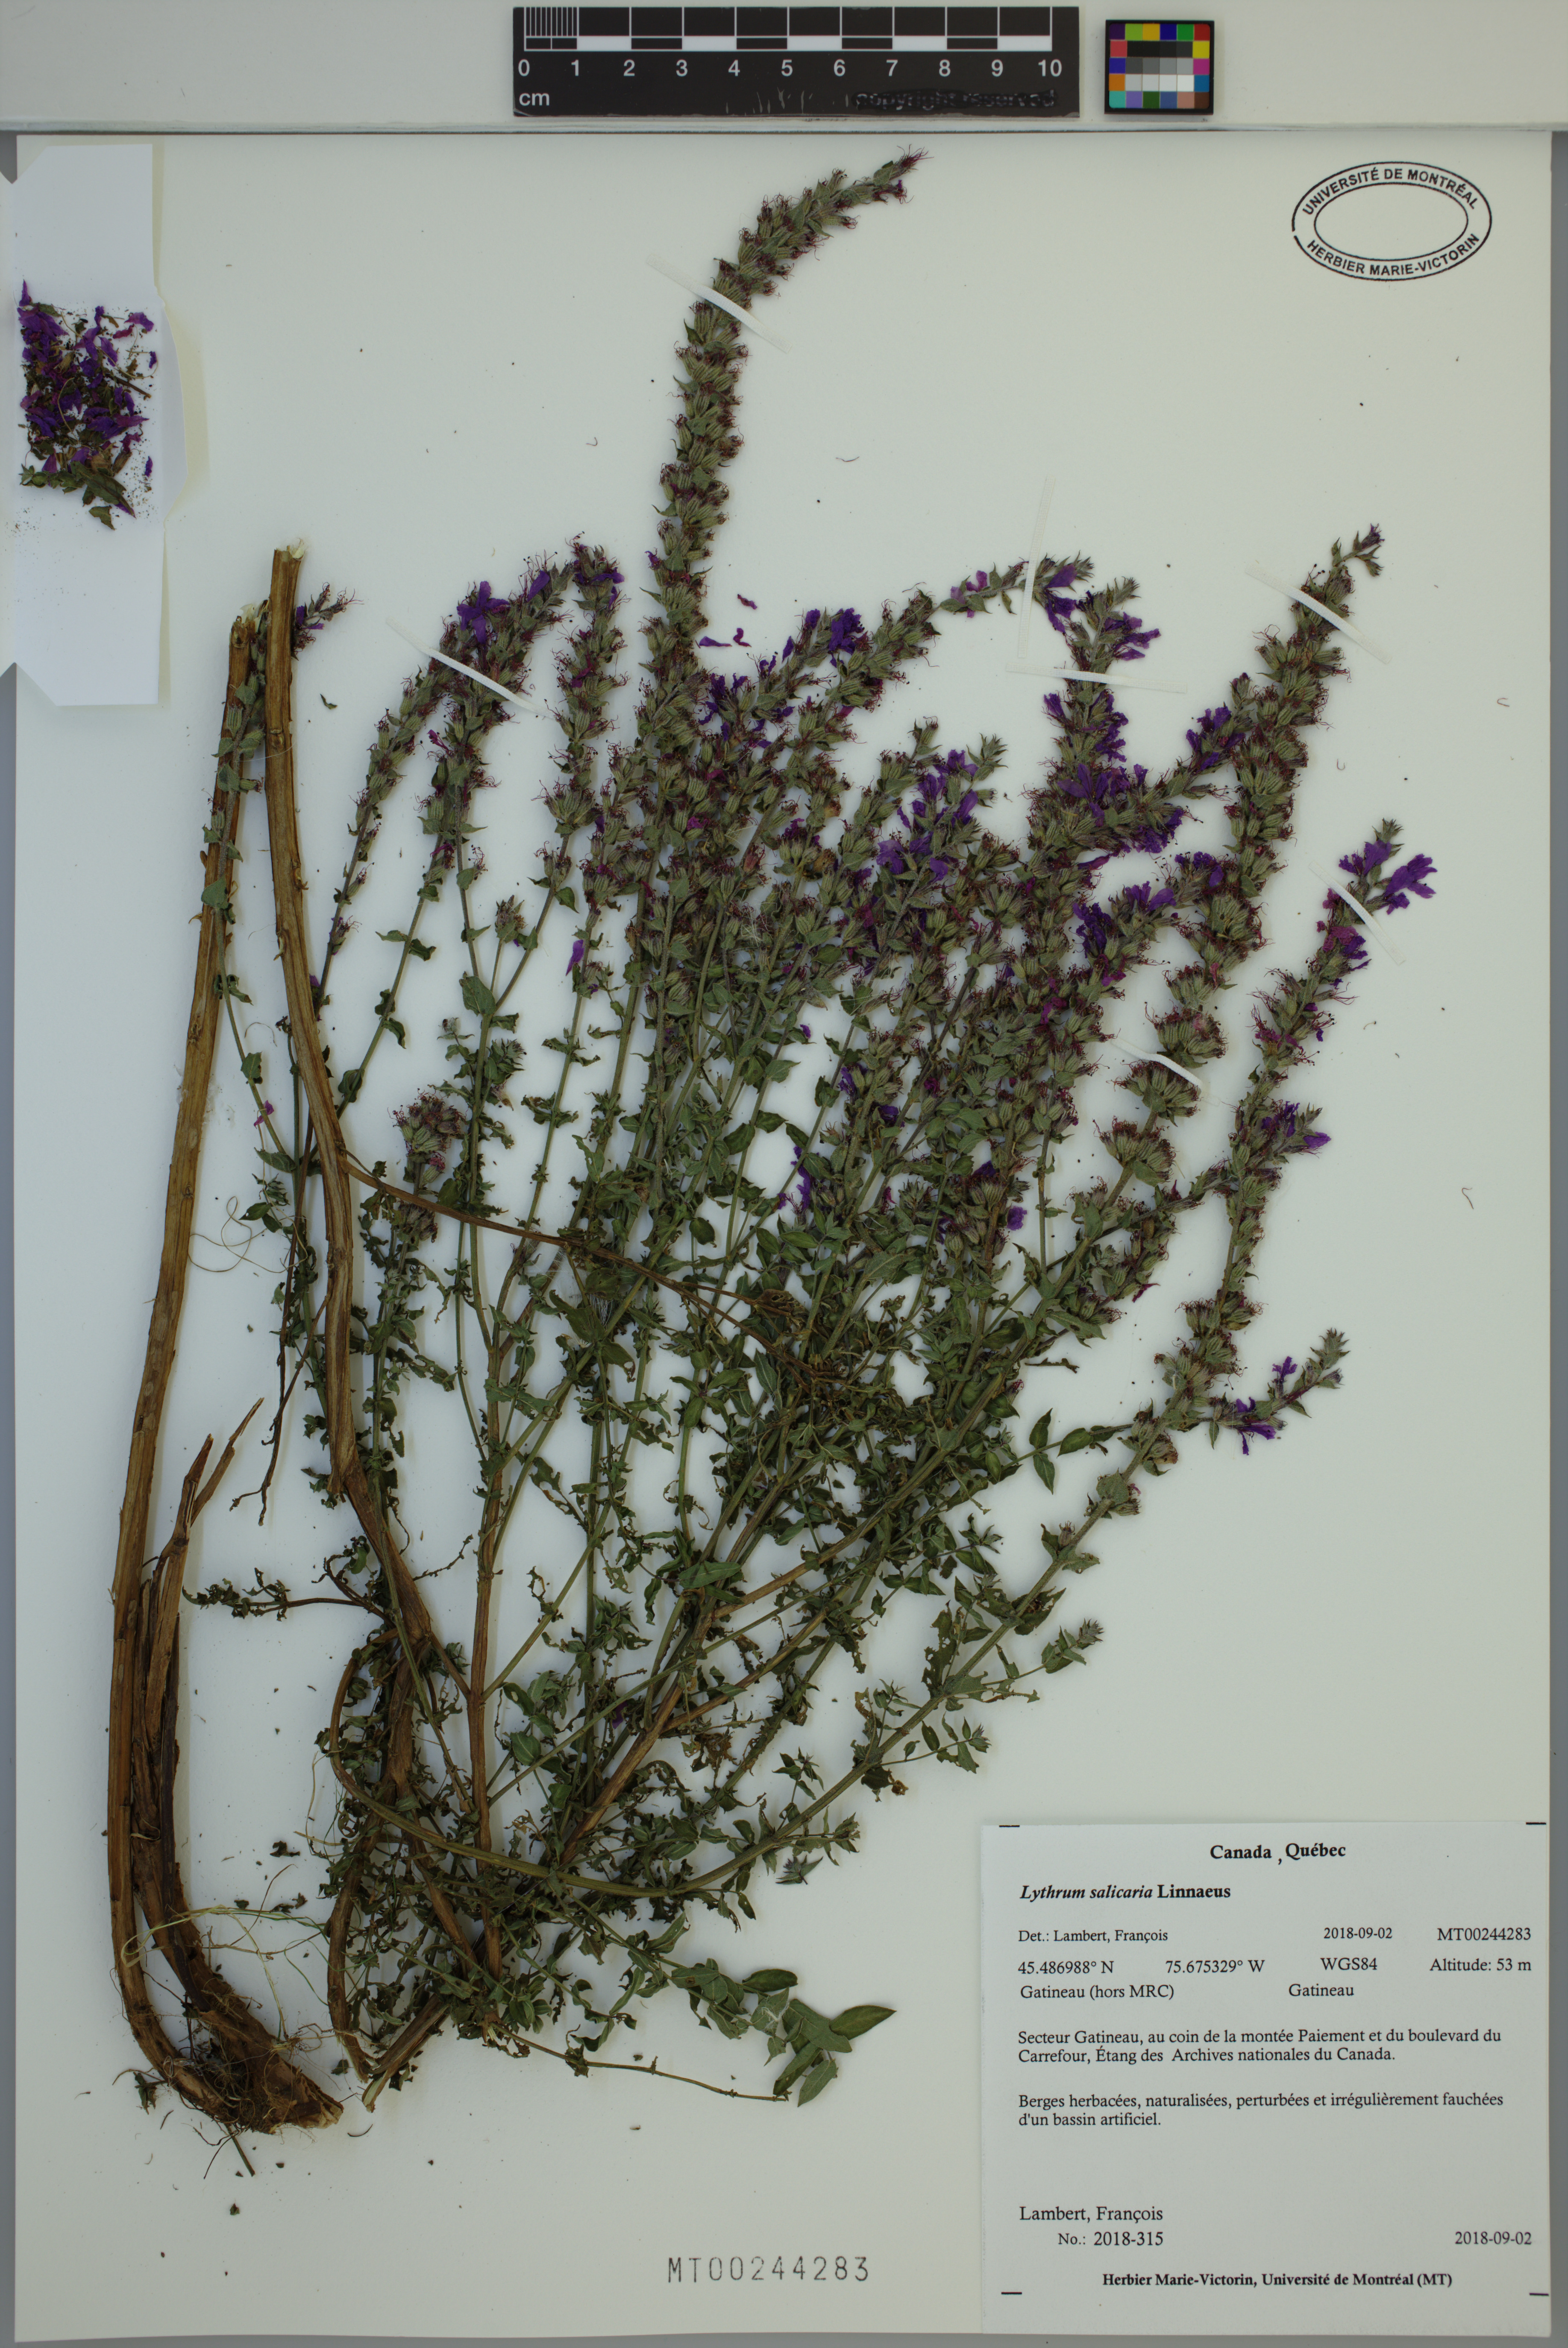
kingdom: Plantae
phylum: Tracheophyta
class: Magnoliopsida
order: Myrtales
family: Lythraceae
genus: Lythrum
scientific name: Lythrum salicaria
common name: Purple loosestrife
